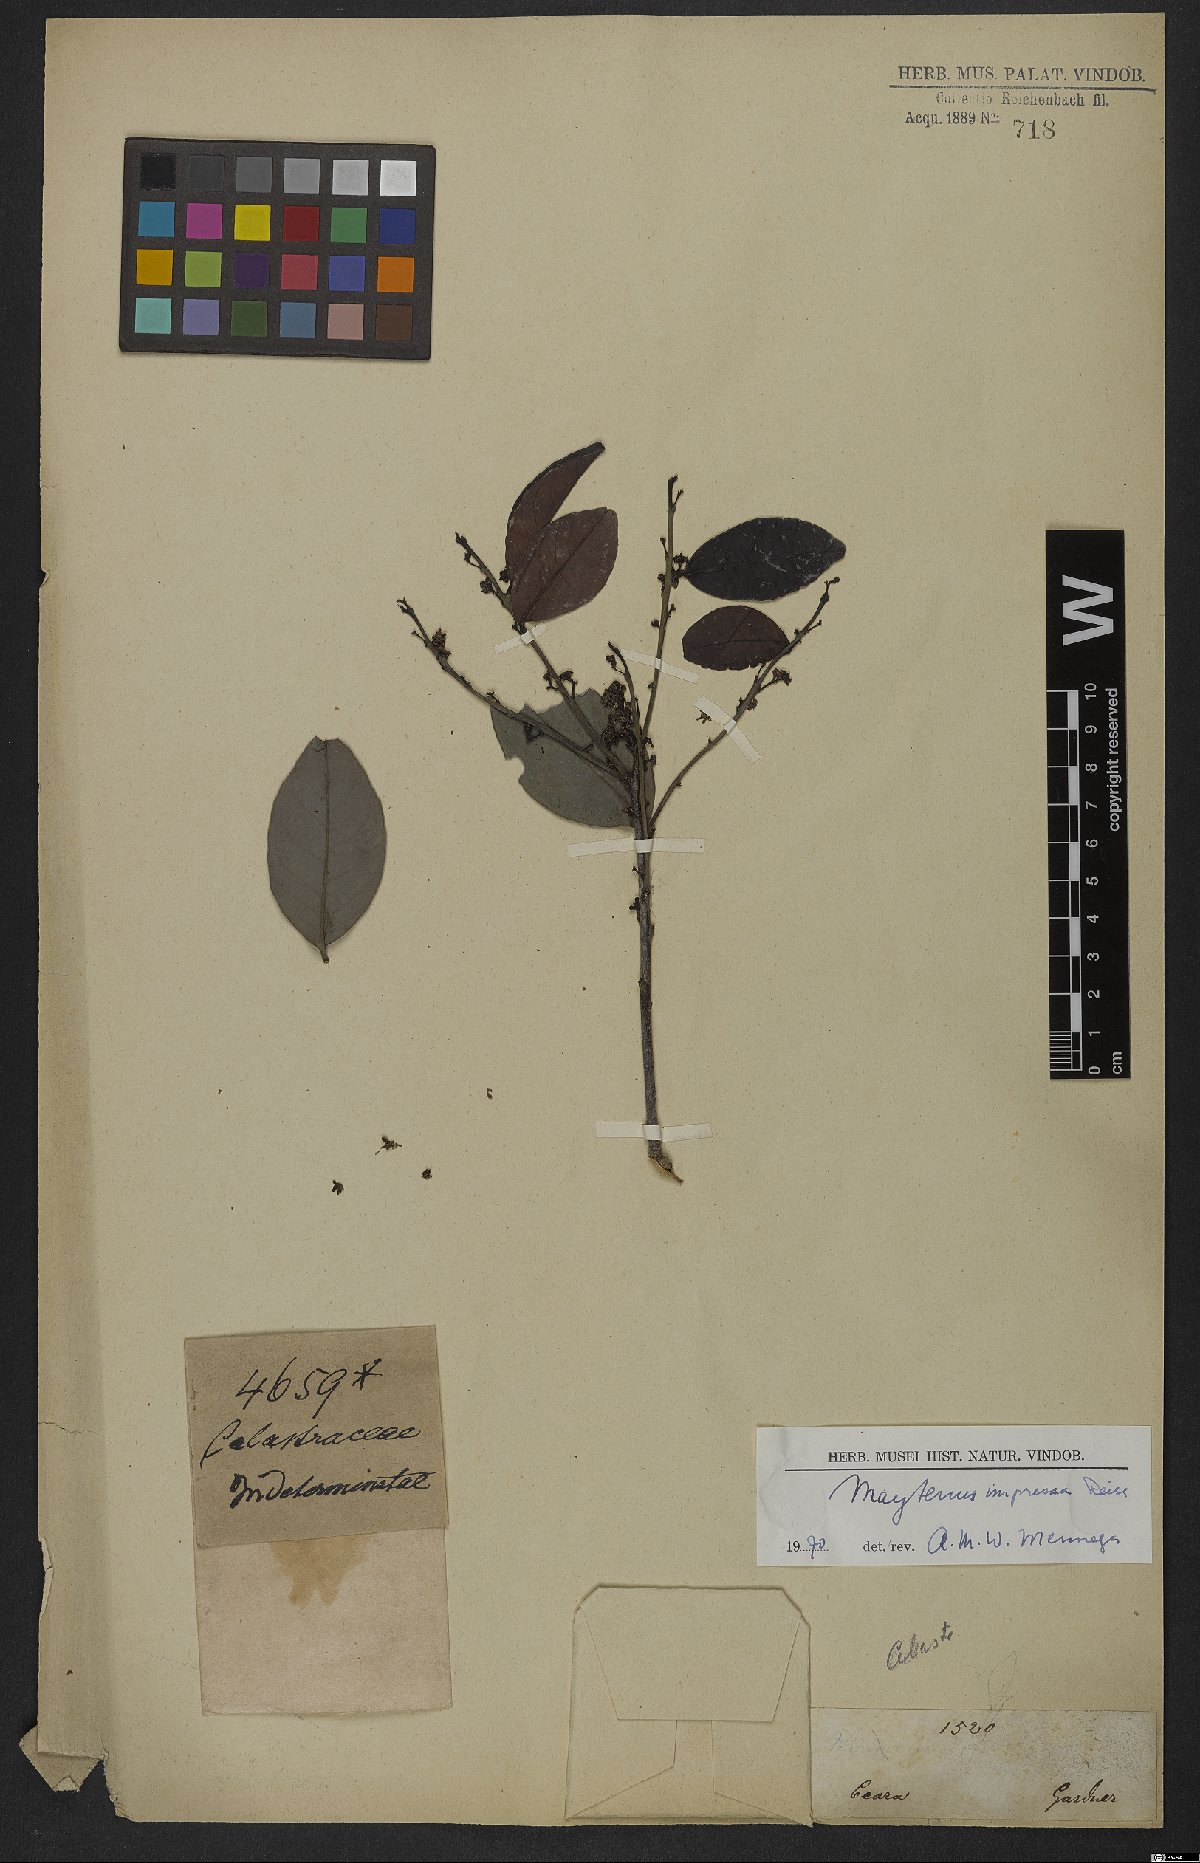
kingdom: Plantae
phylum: Tracheophyta
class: Magnoliopsida
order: Celastrales
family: Celastraceae
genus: Monteverdia
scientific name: Monteverdia obtusifolia
